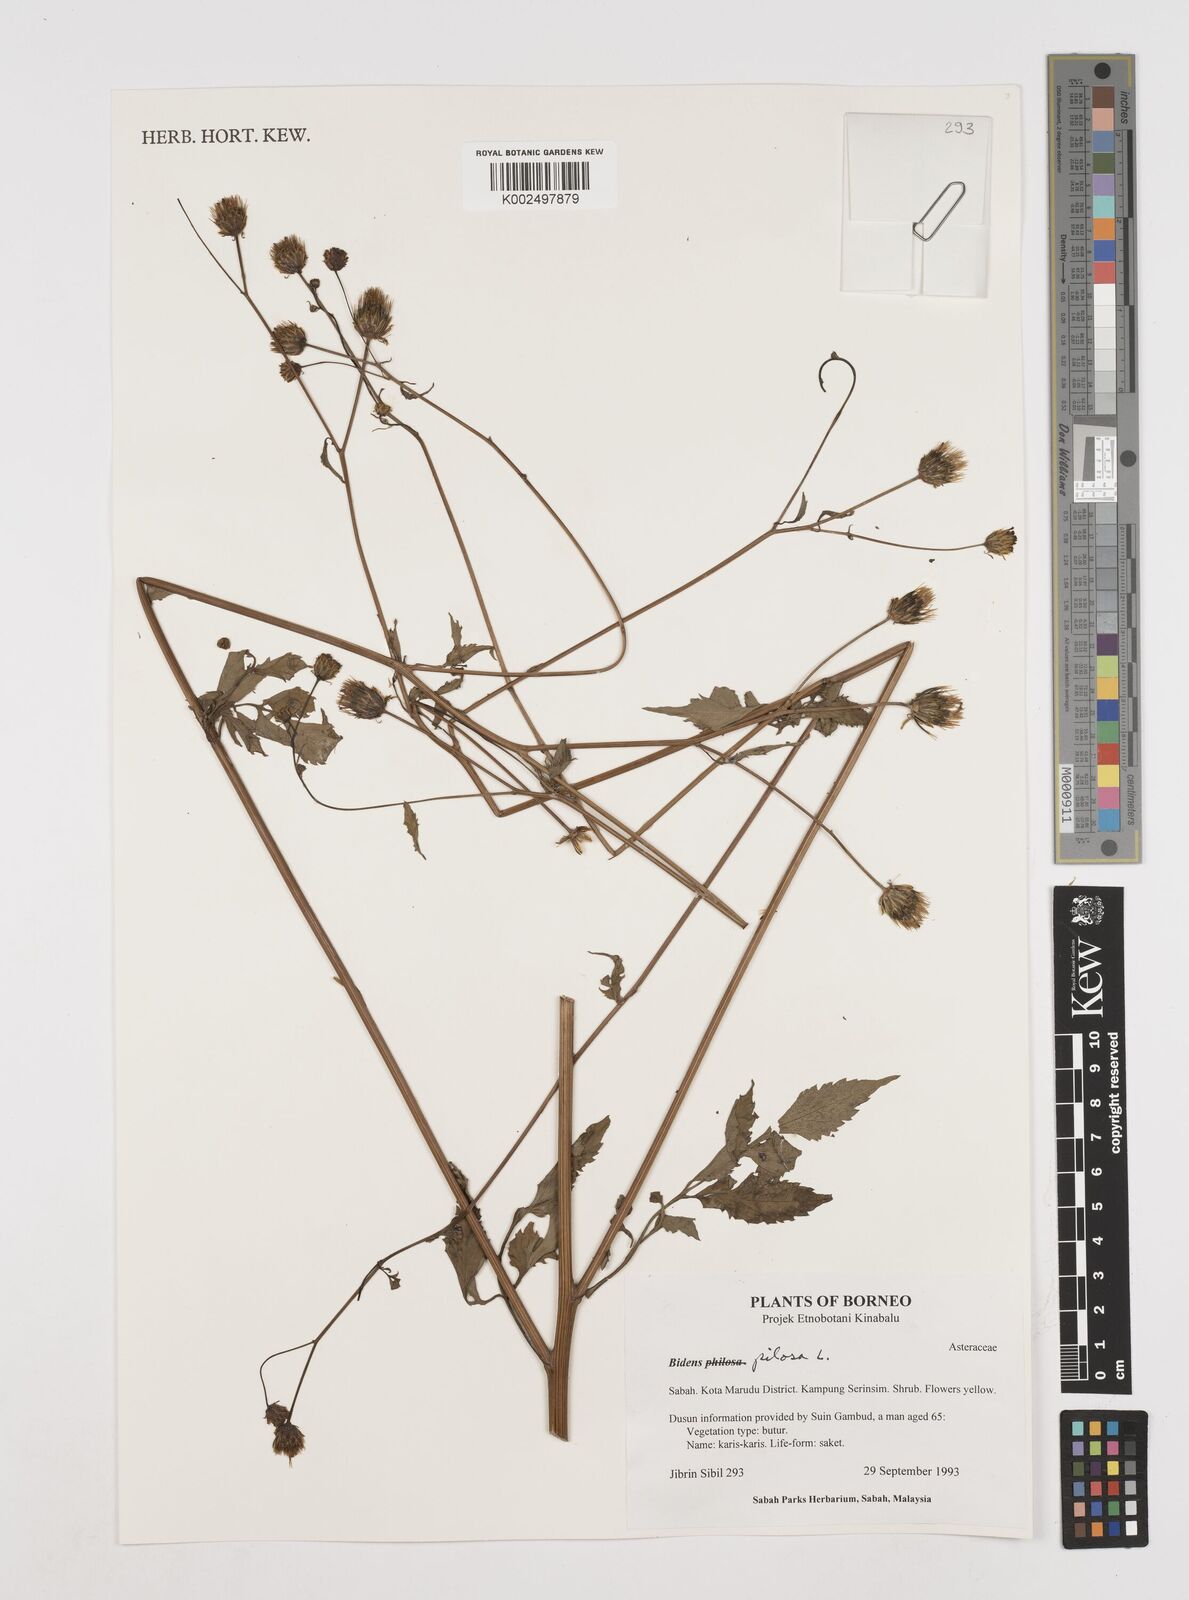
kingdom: Plantae
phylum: Tracheophyta
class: Magnoliopsida
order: Asterales
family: Asteraceae
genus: Bidens
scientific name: Bidens pilosa
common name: Black-jack
